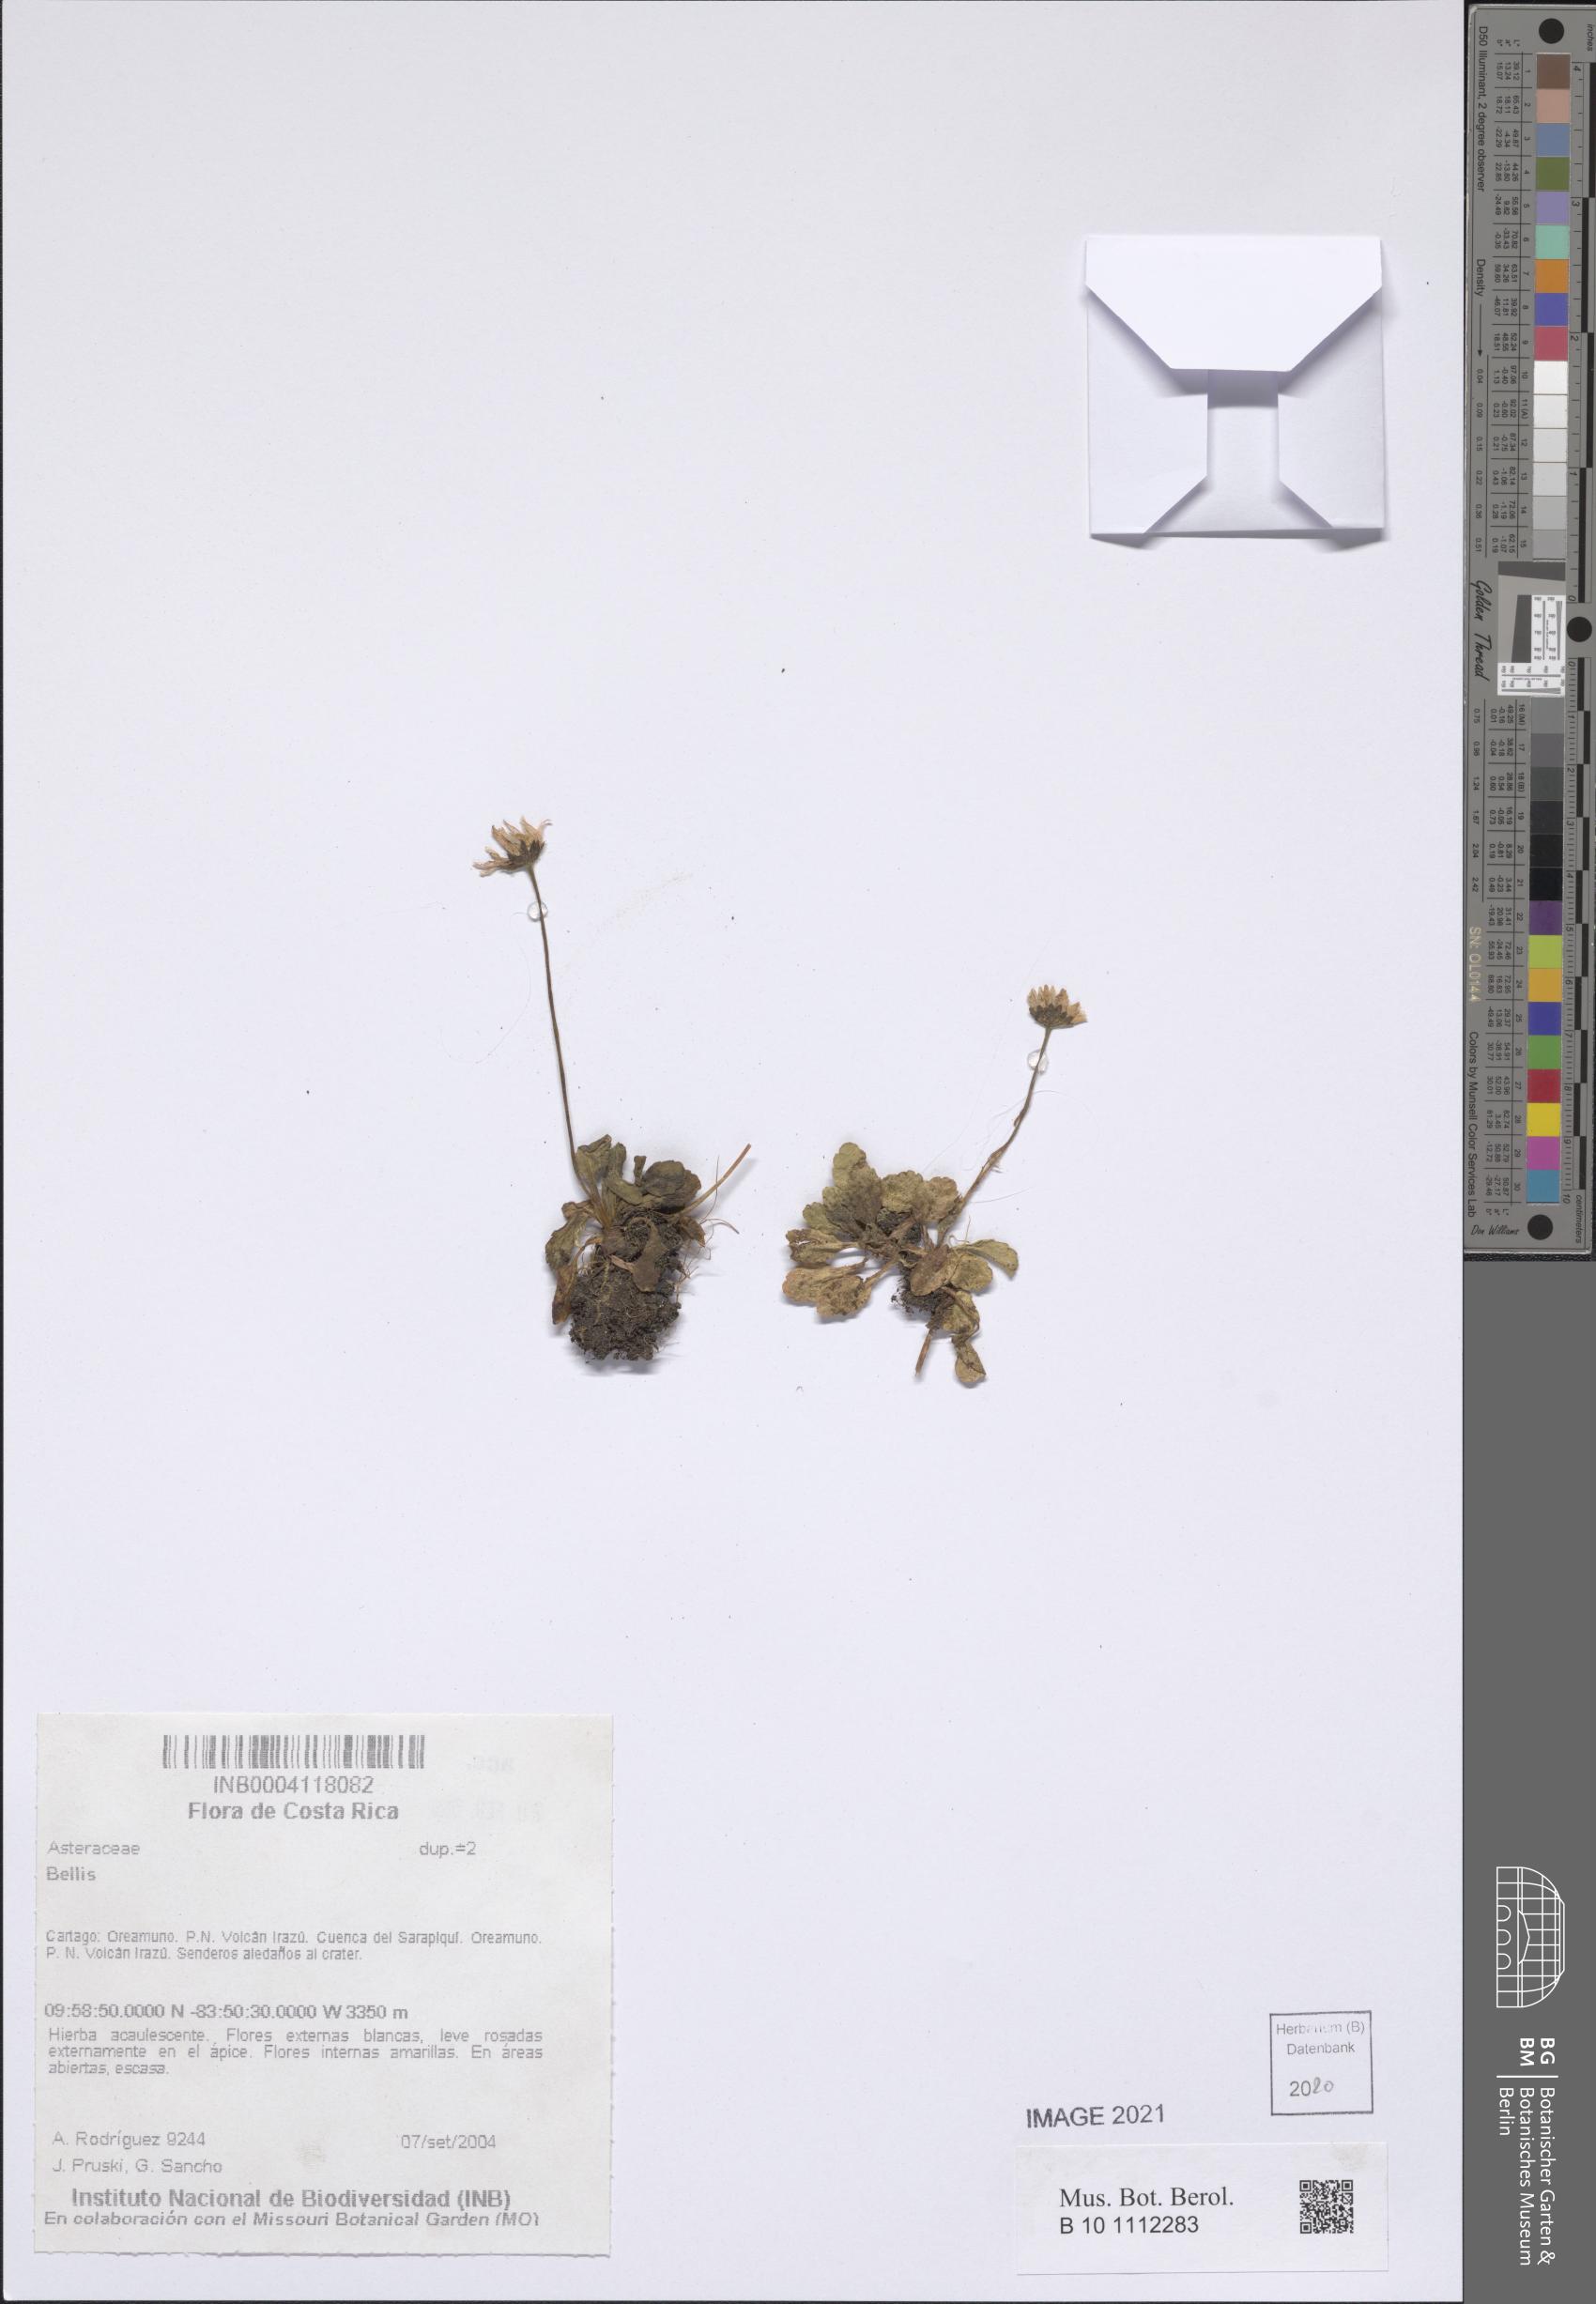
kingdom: Plantae
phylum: Tracheophyta
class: Magnoliopsida
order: Asterales
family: Asteraceae
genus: Bellis
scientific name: Bellis
